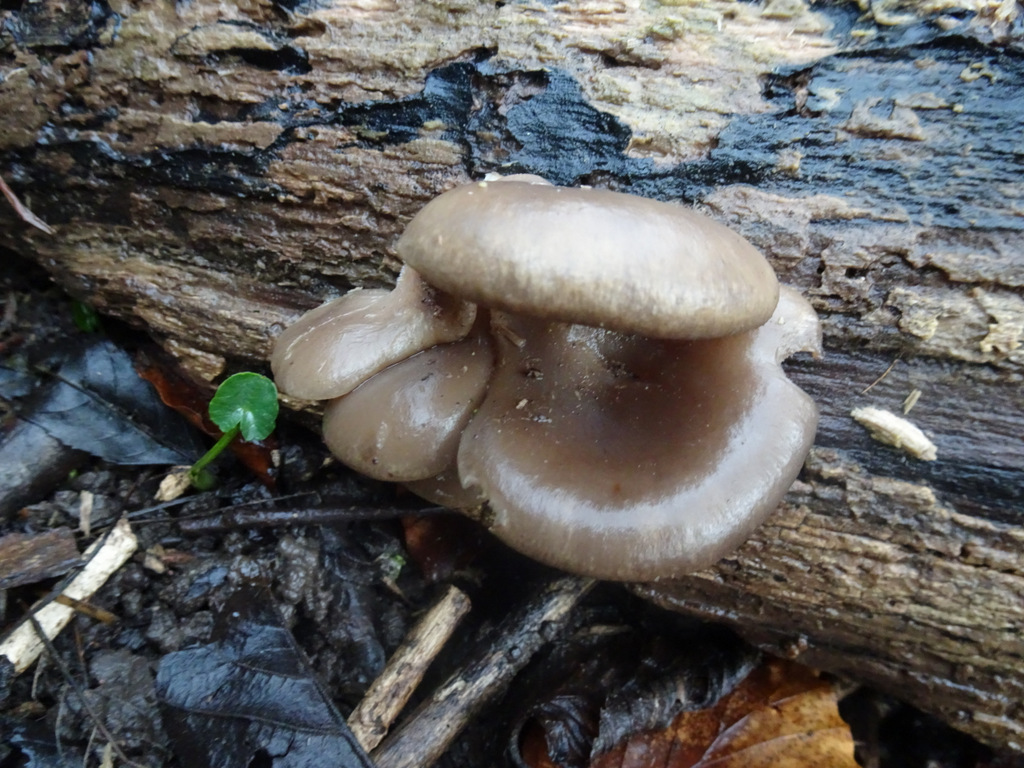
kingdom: Fungi
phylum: Basidiomycota
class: Agaricomycetes
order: Agaricales
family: Sarcomyxaceae
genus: Sarcomyxa
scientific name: Sarcomyxa serotina
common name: gummihat
